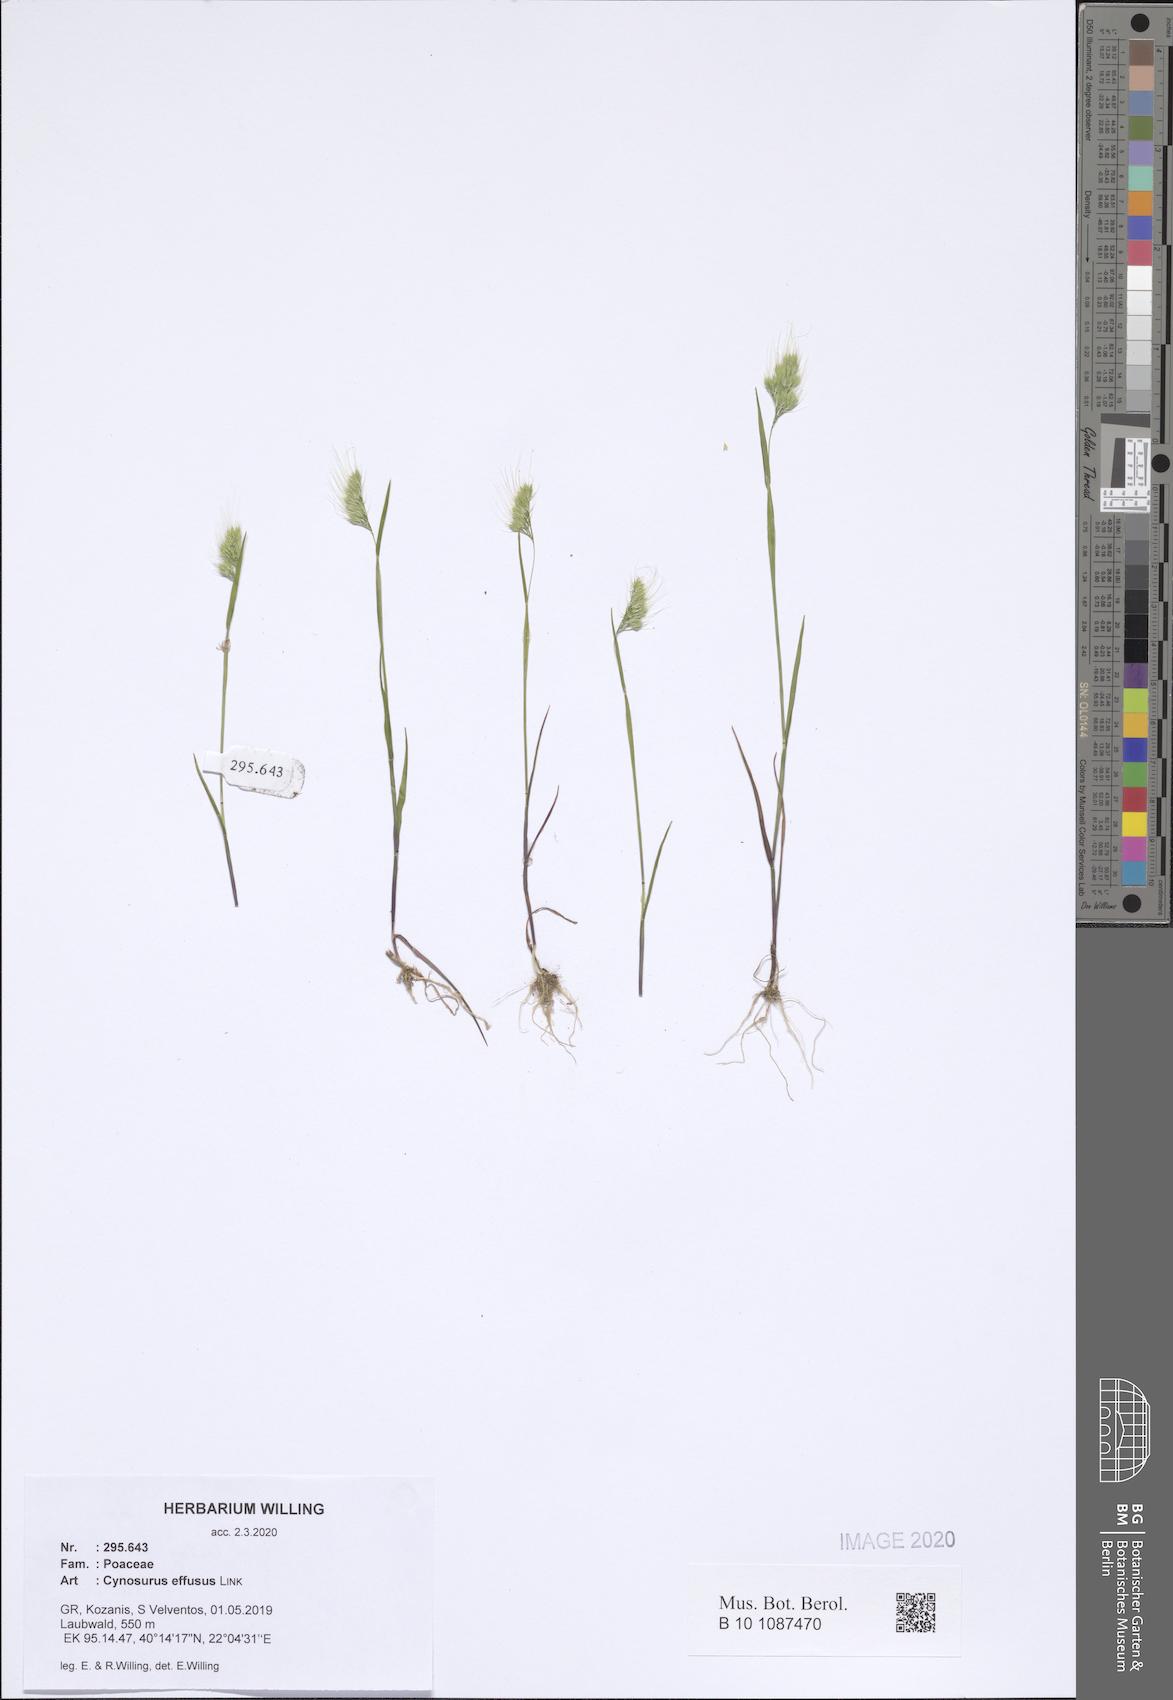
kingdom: Plantae
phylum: Tracheophyta
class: Liliopsida
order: Poales
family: Poaceae
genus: Cynosurus
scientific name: Cynosurus effusus
